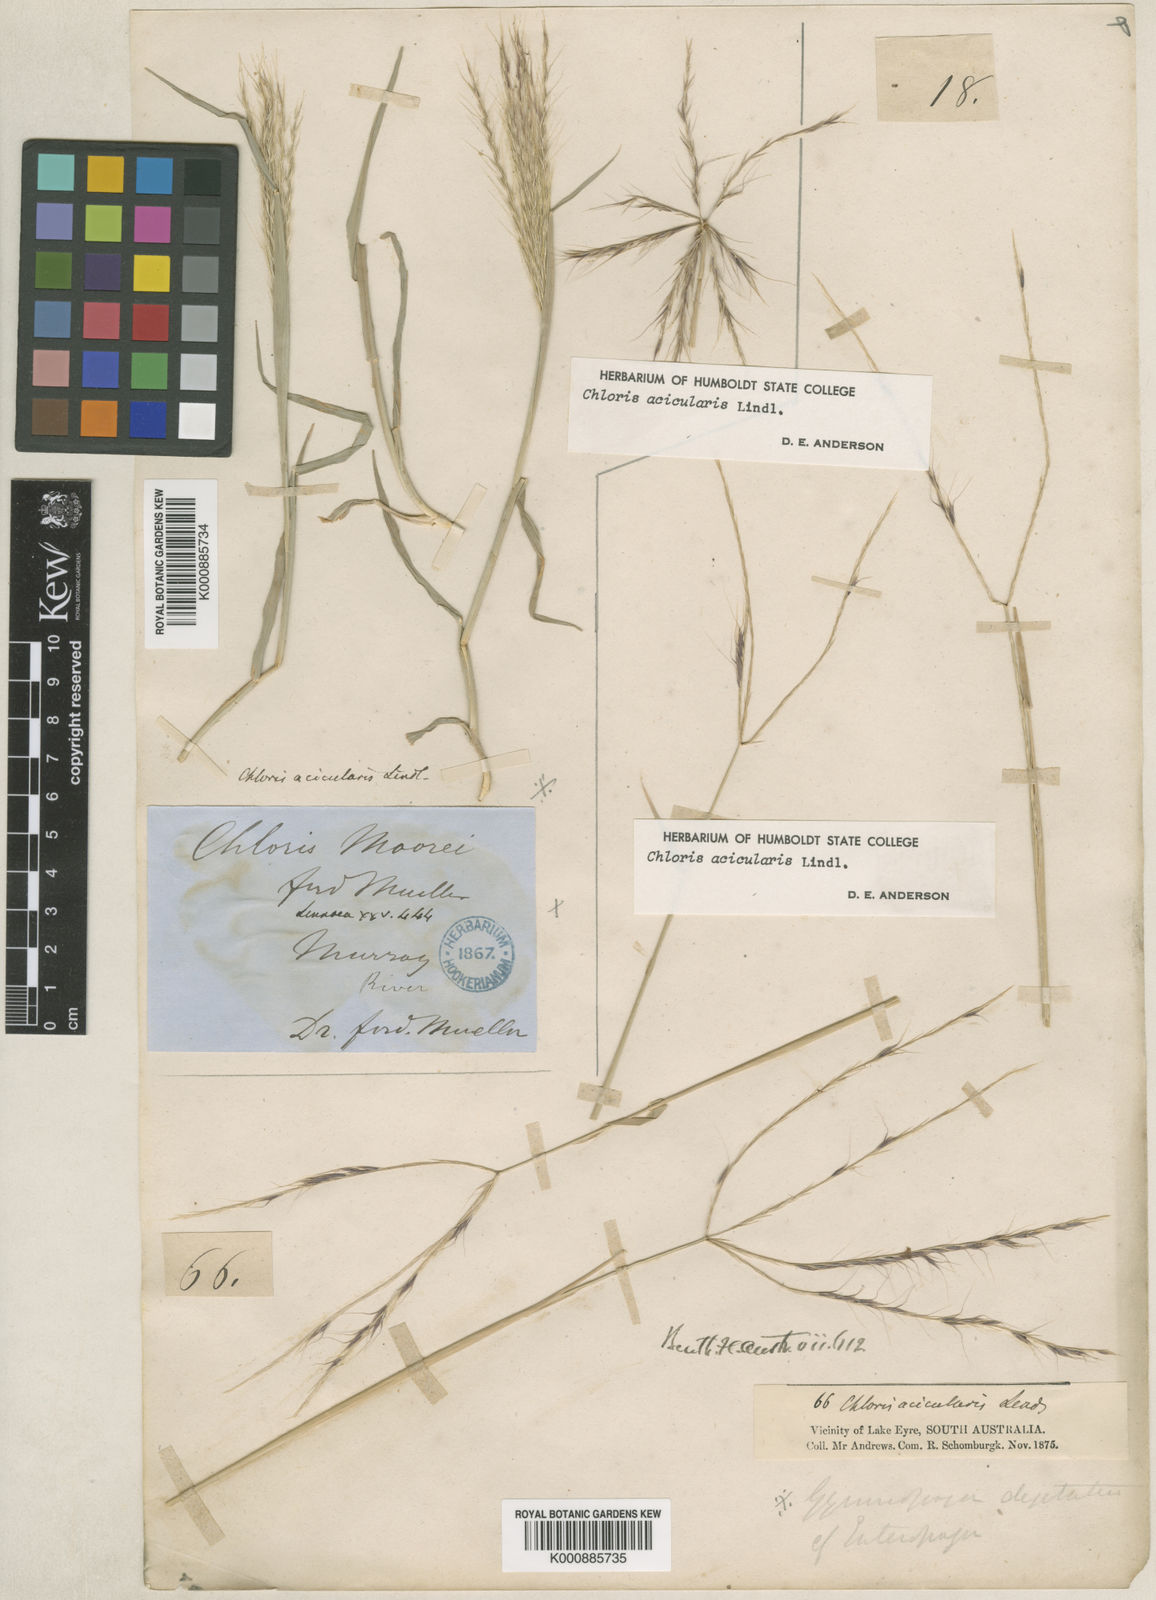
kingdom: Plantae
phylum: Tracheophyta
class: Liliopsida
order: Poales
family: Poaceae
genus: Enteropogon
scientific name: Enteropogon acicularis
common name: Curly windmill grass
